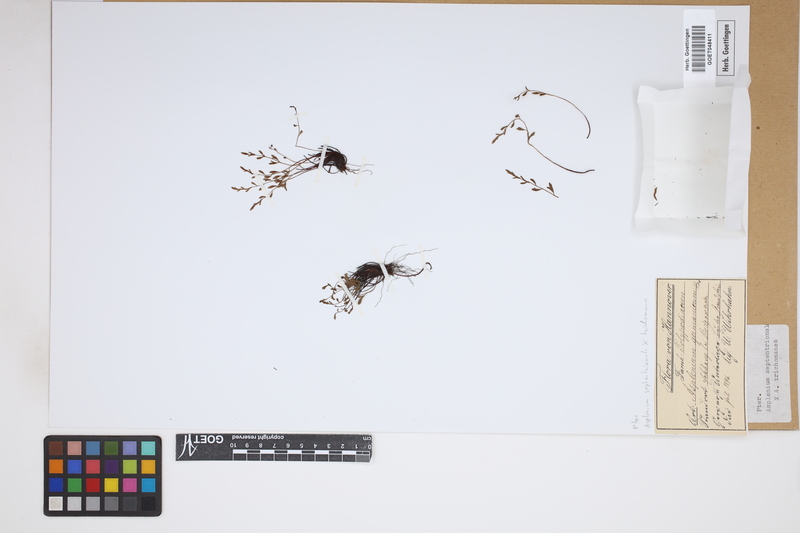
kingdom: Plantae
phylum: Tracheophyta
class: Polypodiopsida
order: Polypodiales
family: Aspleniaceae
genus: Asplenium
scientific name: Asplenium
